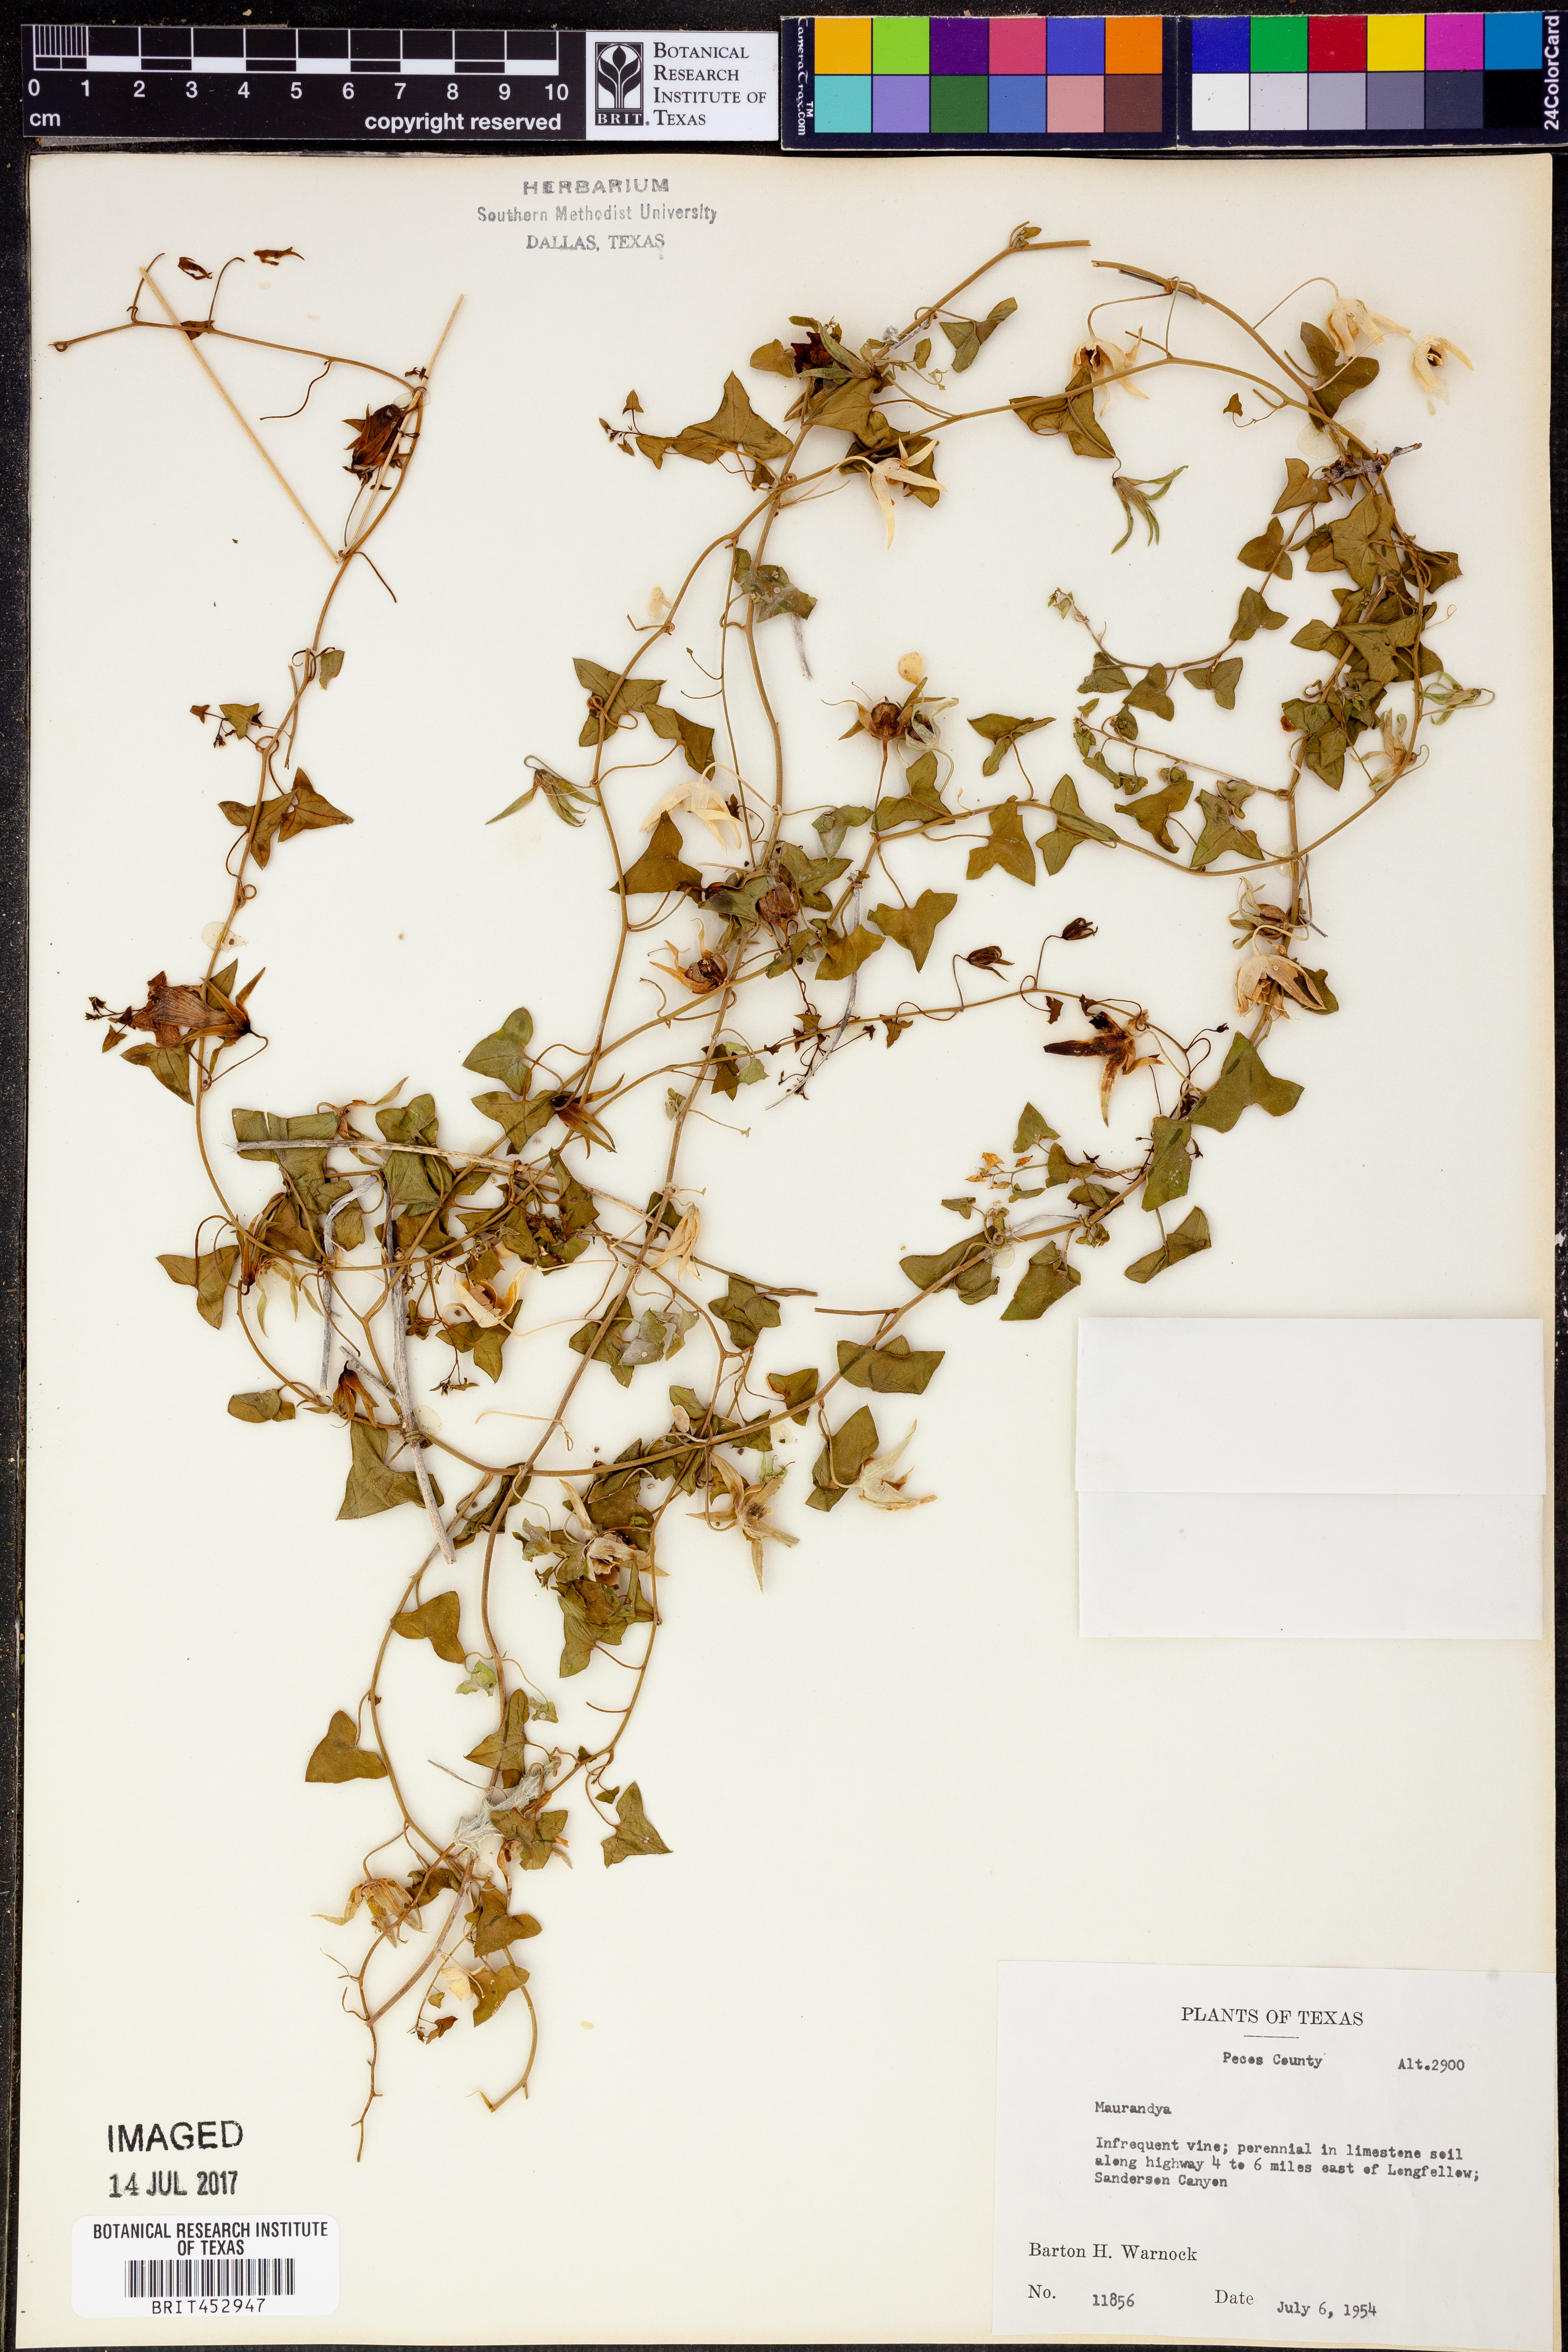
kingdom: Plantae
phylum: Tracheophyta
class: Magnoliopsida
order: Lamiales
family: Plantaginaceae
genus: Maurandya
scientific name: Maurandya
